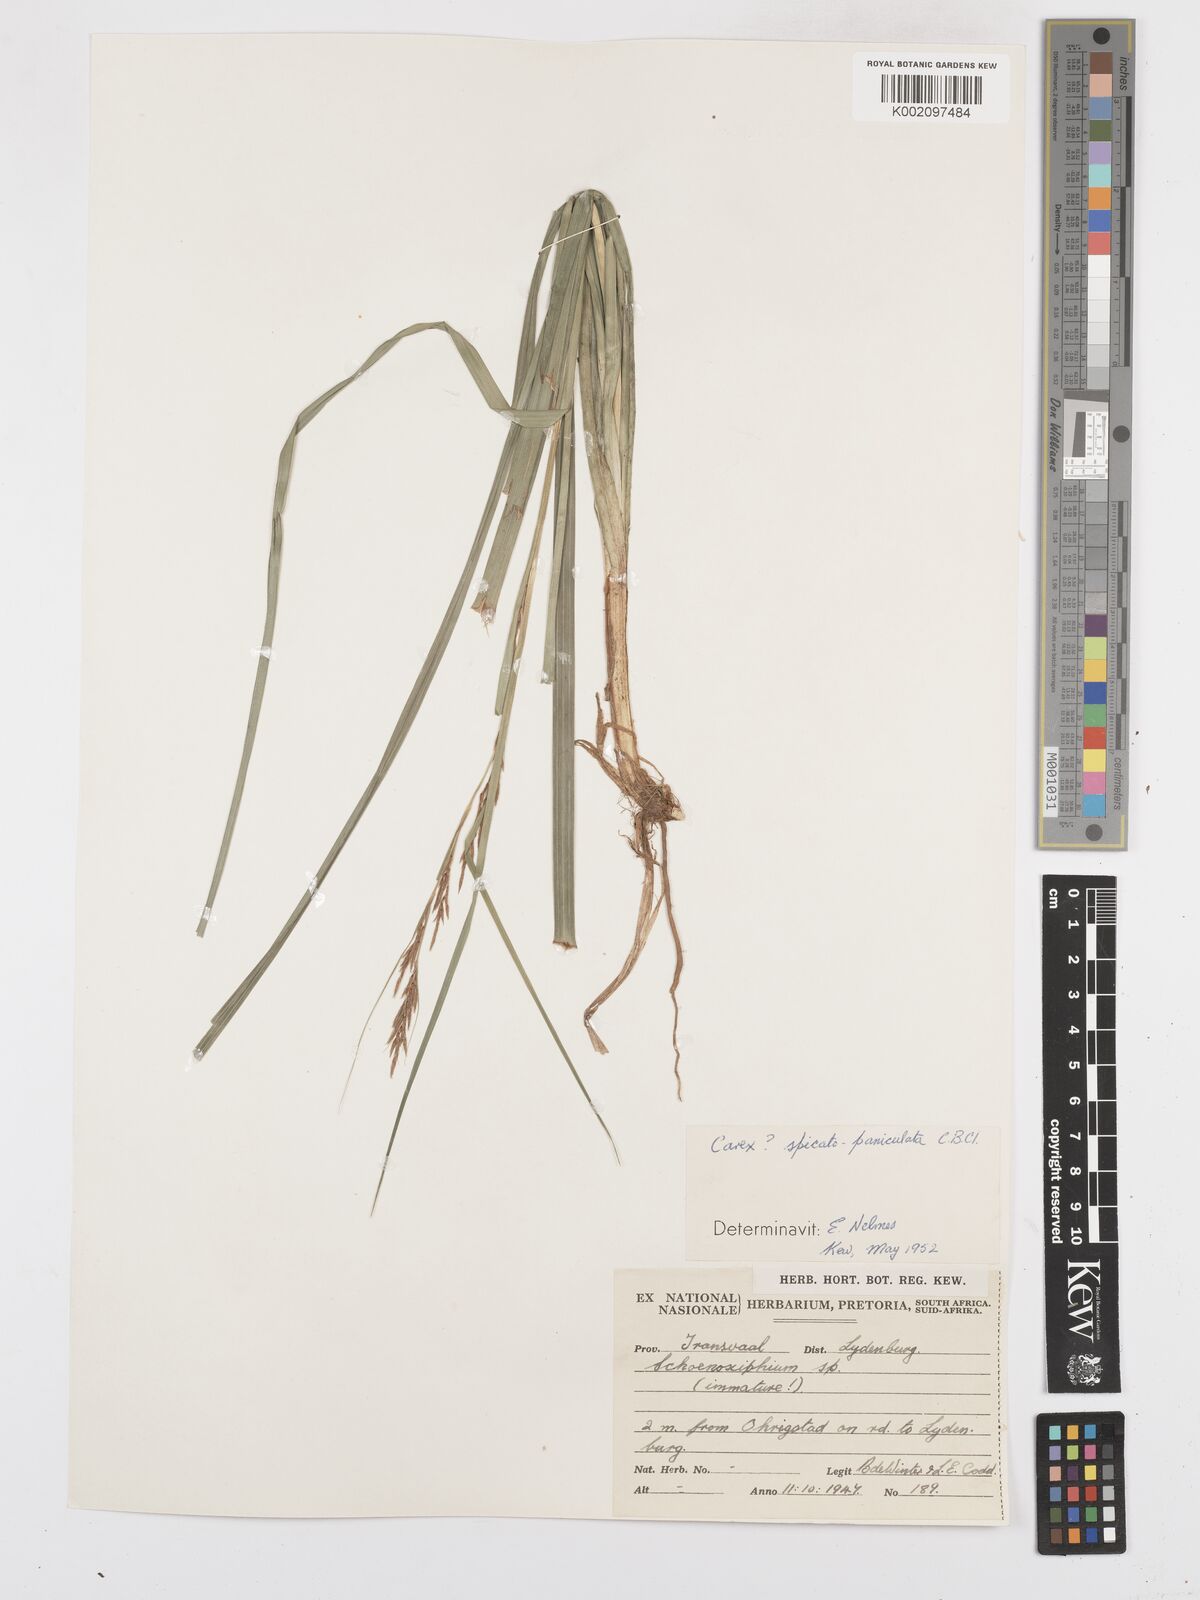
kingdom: Plantae
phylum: Tracheophyta
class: Liliopsida
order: Poales
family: Cyperaceae
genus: Carex
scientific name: Carex spicatopaniculata
